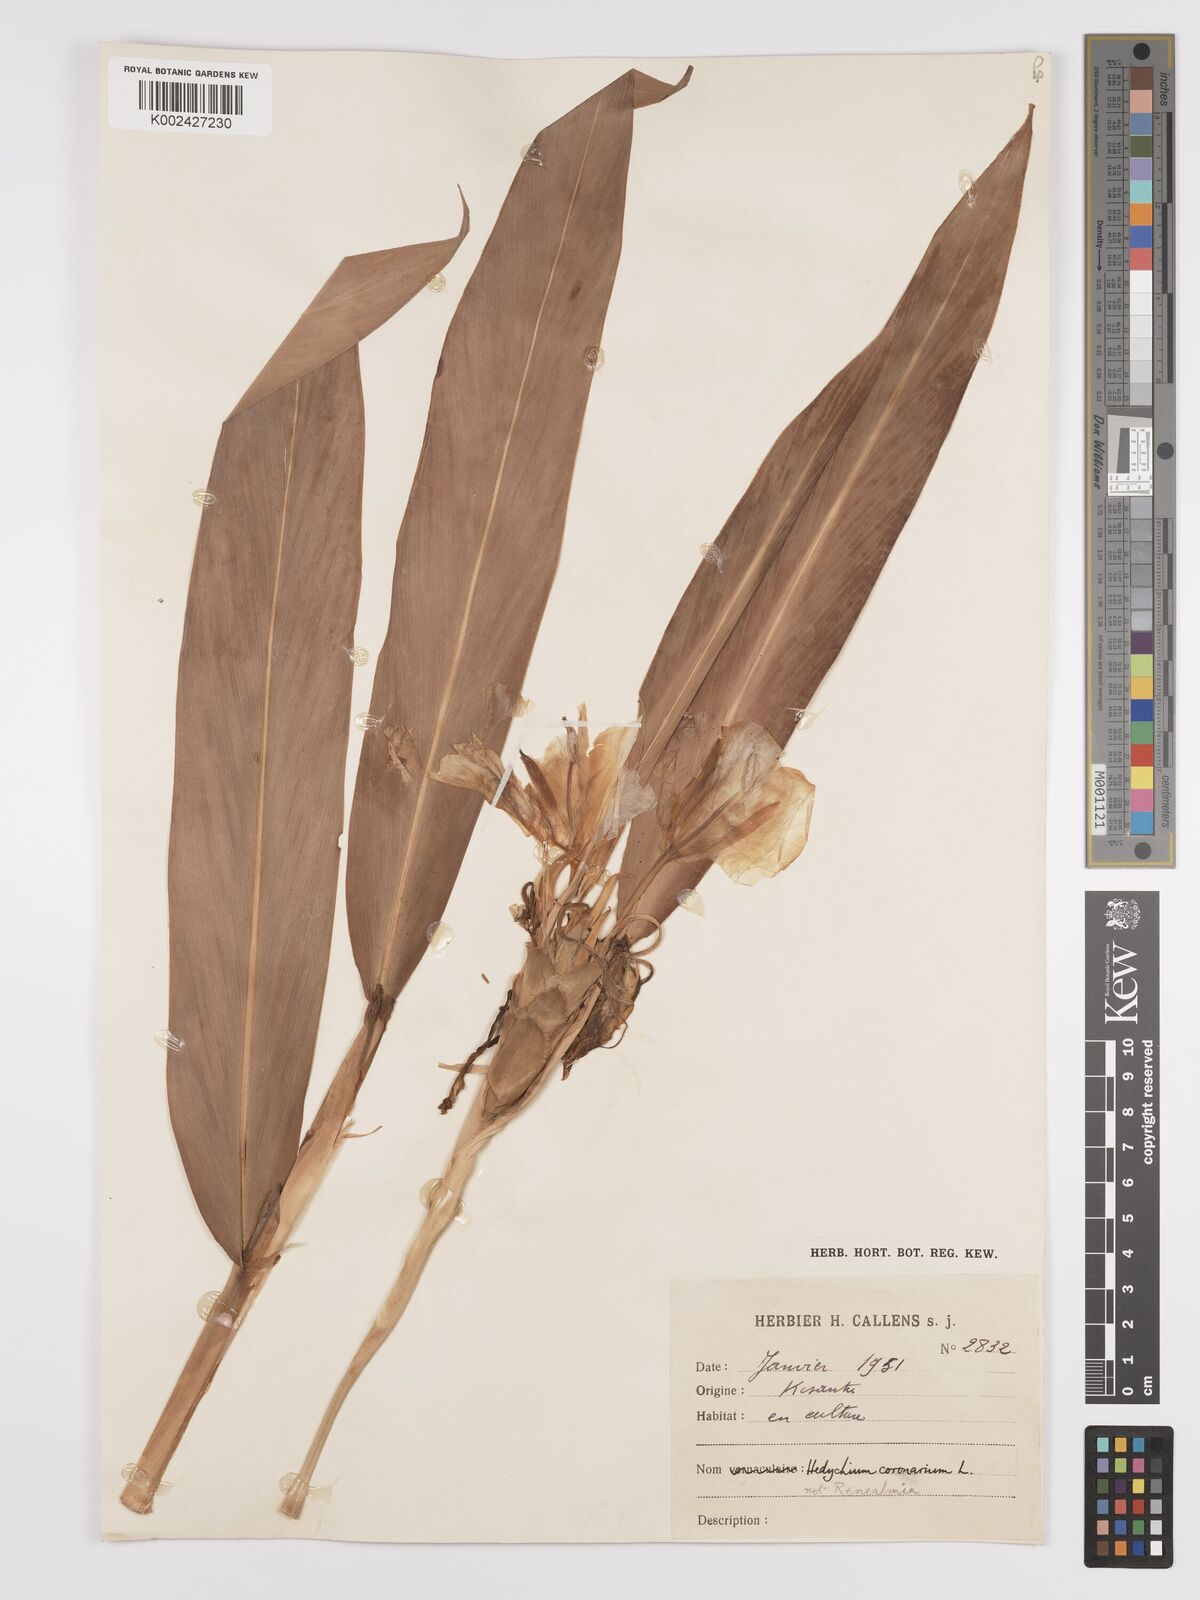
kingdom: Plantae
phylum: Tracheophyta
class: Liliopsida
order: Zingiberales
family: Zingiberaceae
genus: Hedychium
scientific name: Hedychium coronarium
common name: White garland-lily
